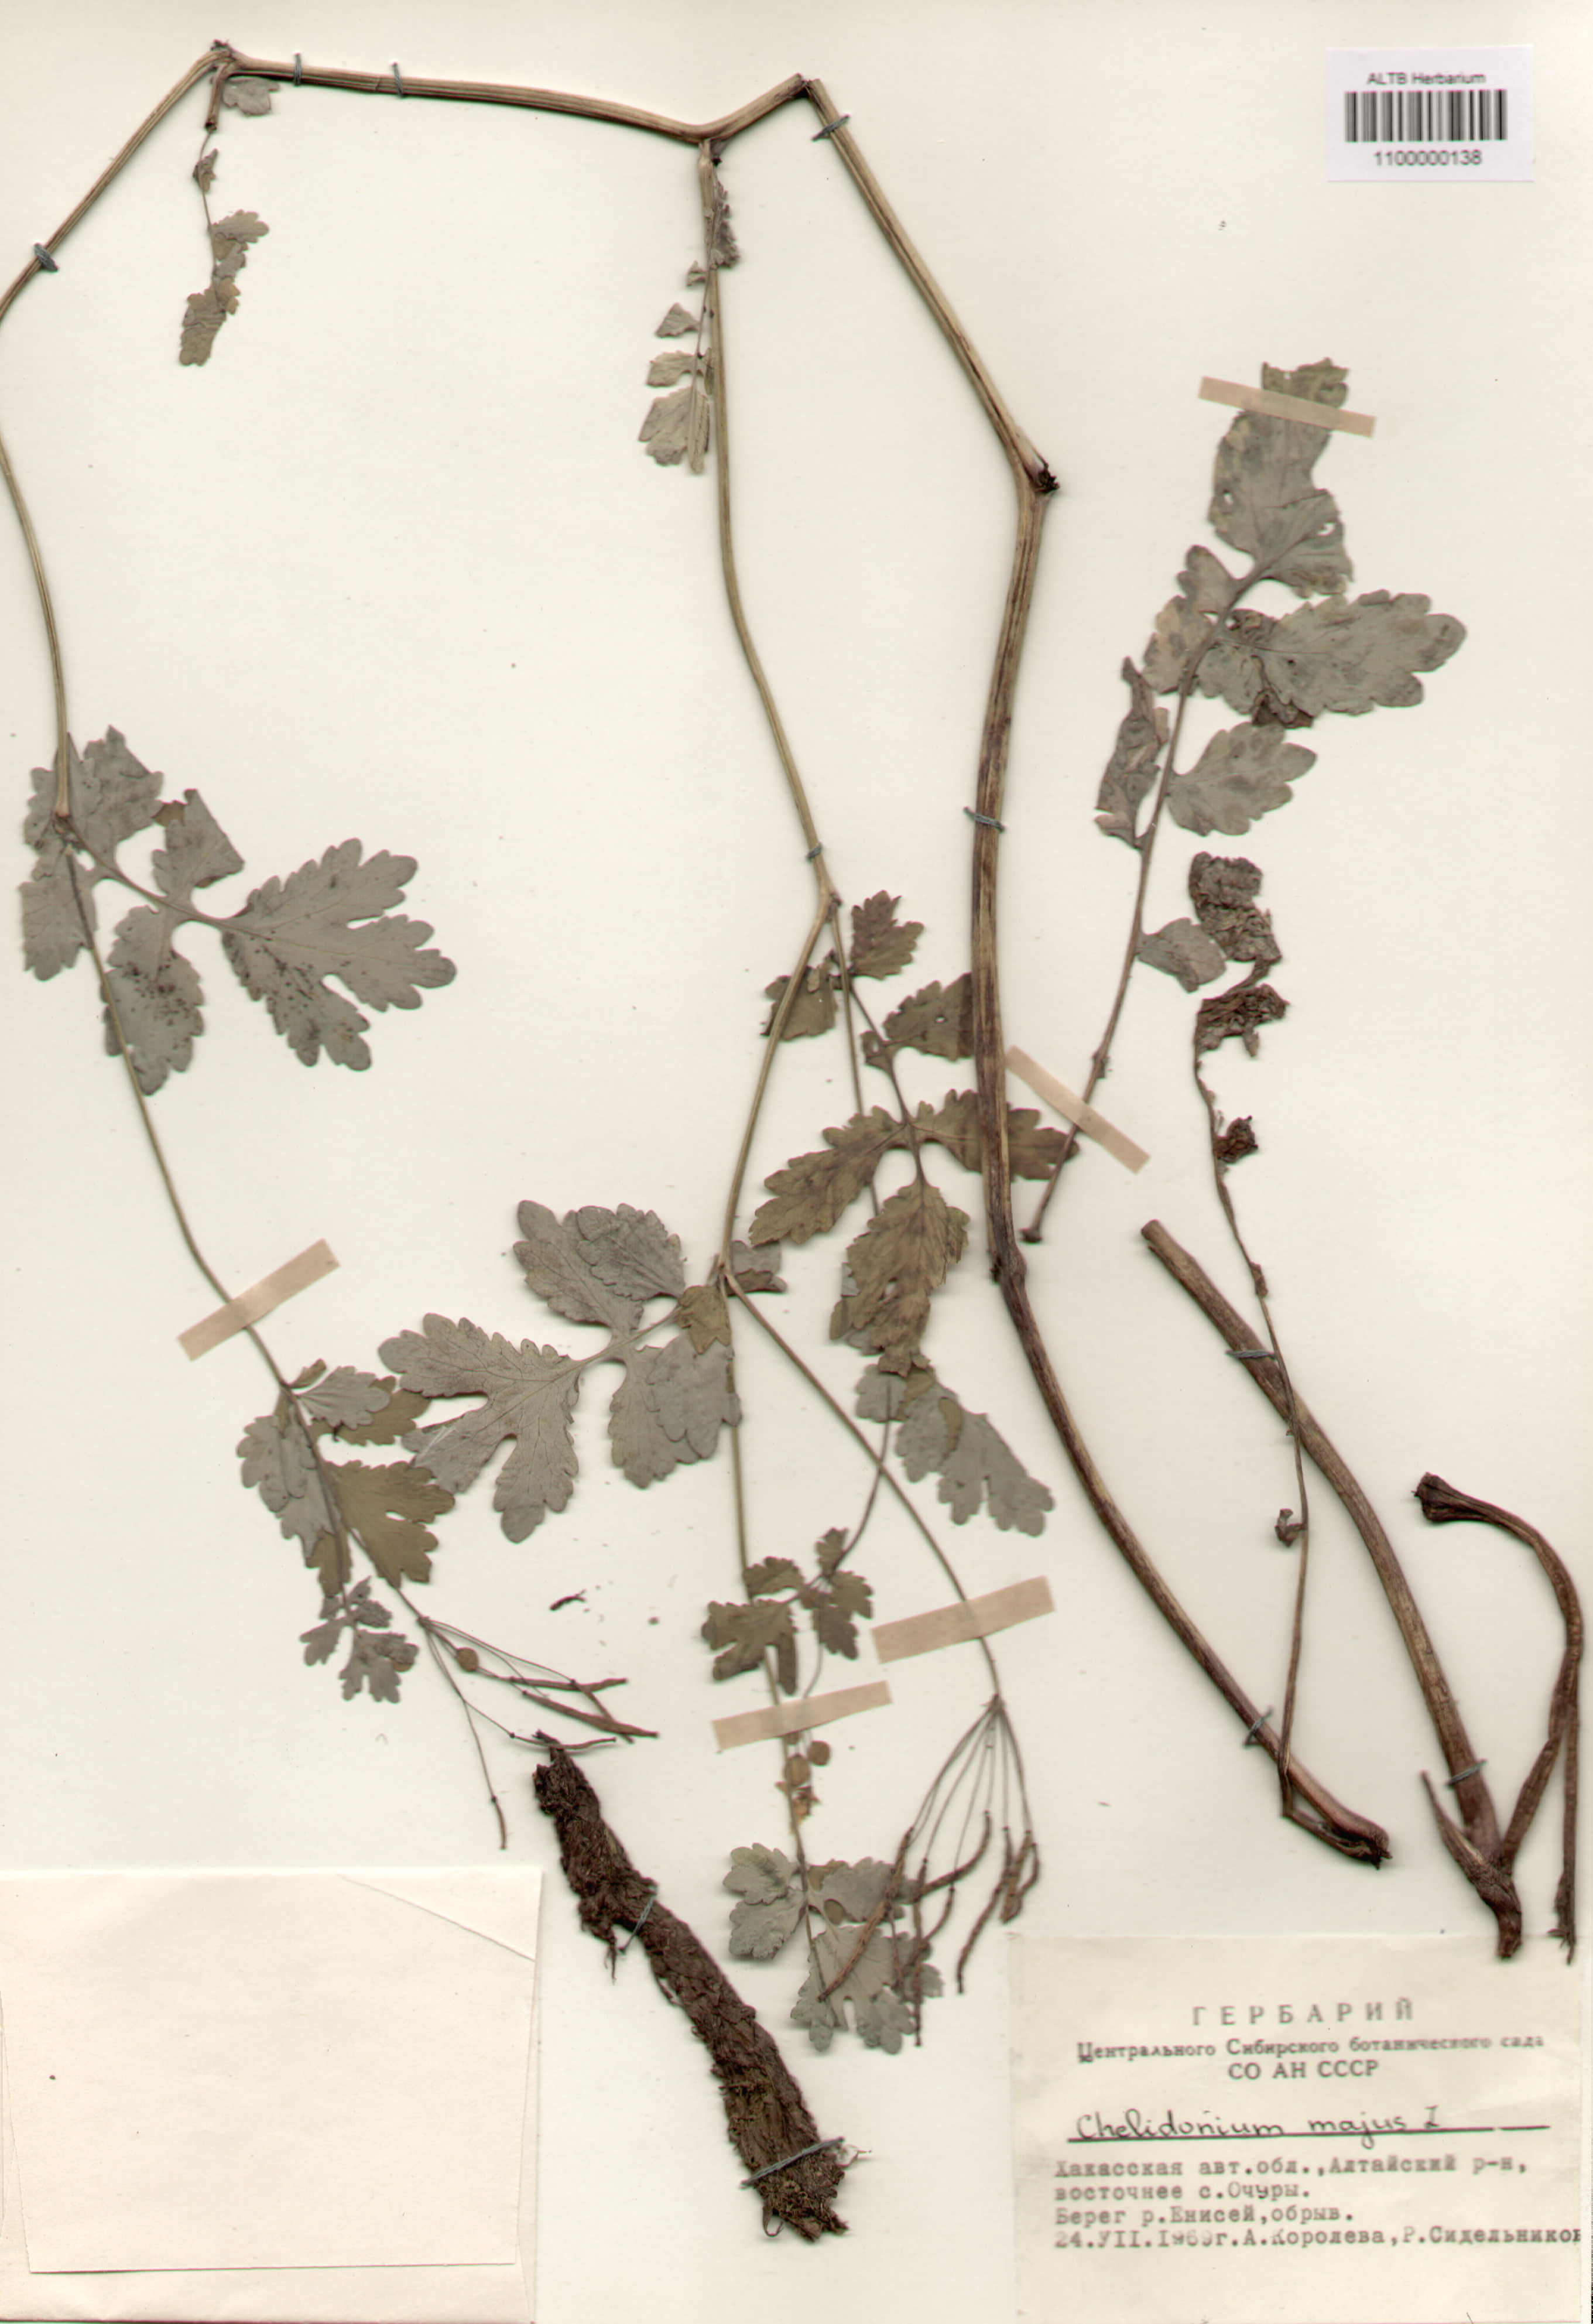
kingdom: Plantae
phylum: Tracheophyta
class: Magnoliopsida
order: Ranunculales
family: Papaveraceae
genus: Chelidonium
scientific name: Chelidonium majus
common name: Greater celandine
